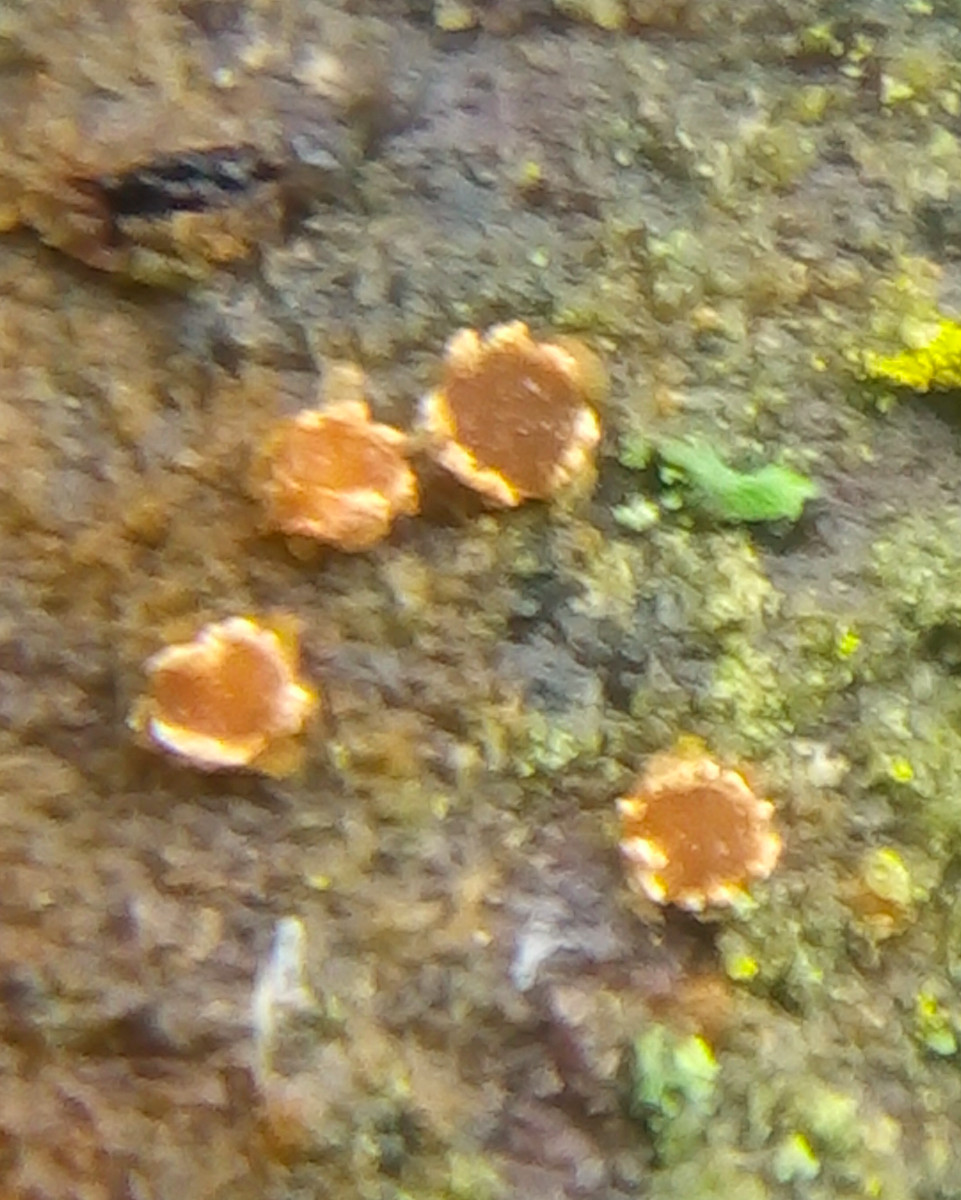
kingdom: Fungi
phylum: Ascomycota
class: Leotiomycetes
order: Helotiales
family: Dermateaceae
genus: Pezicula
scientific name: Pezicula ocellata
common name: tandet klyngeskive
